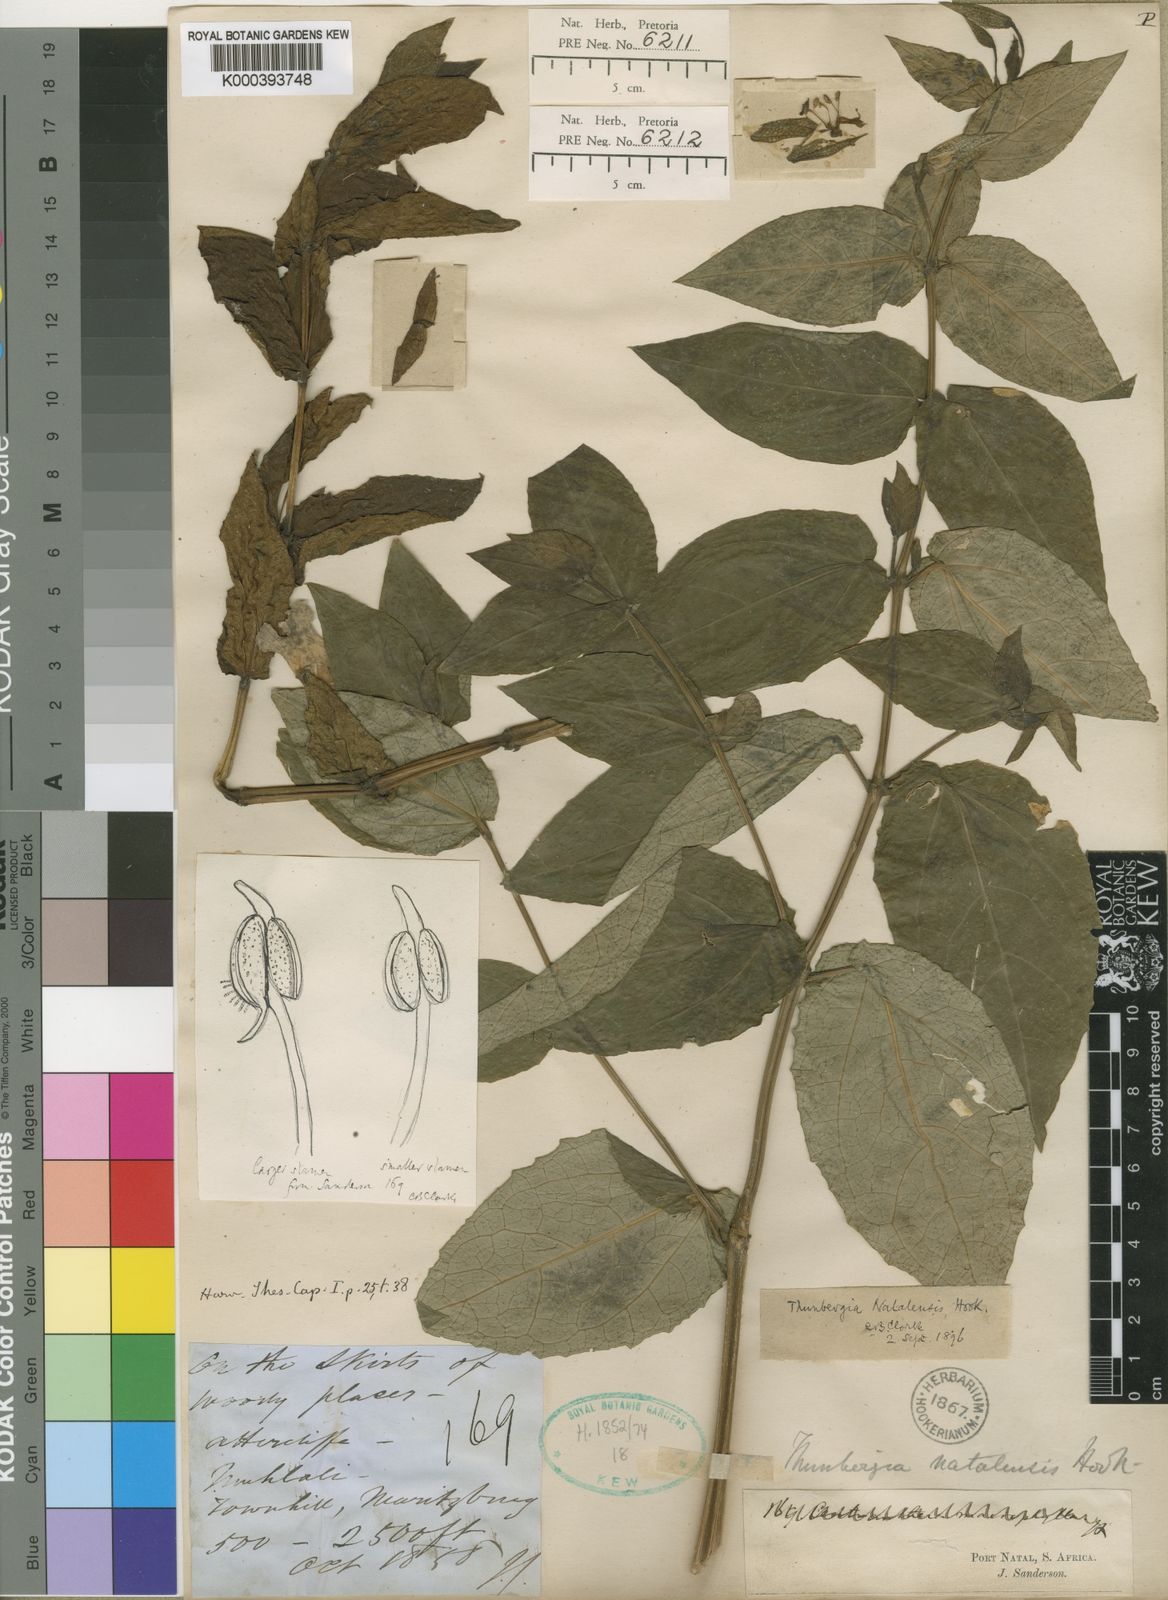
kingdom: Plantae
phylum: Tracheophyta
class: Magnoliopsida
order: Lamiales
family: Acanthaceae
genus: Thunbergia
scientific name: Thunbergia natalensis
